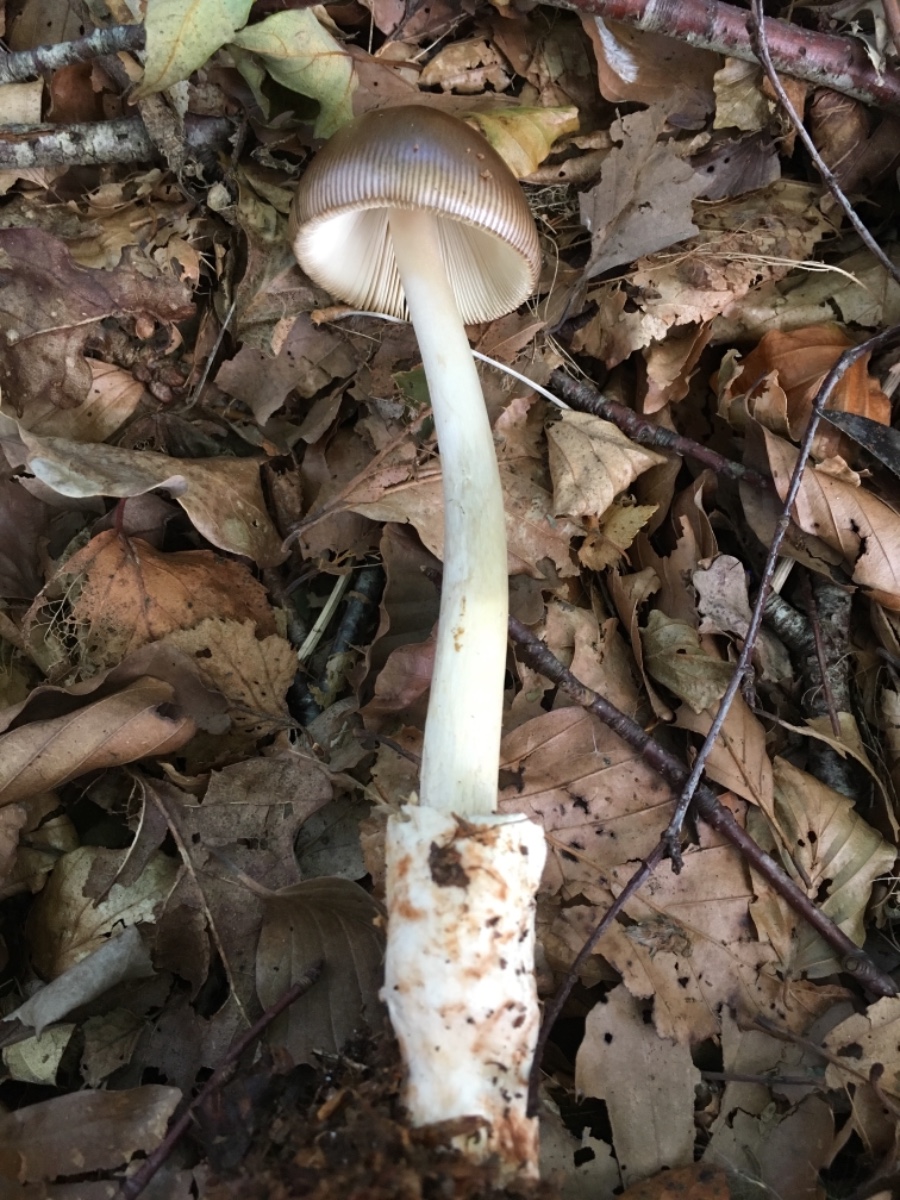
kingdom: Fungi
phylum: Basidiomycota
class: Agaricomycetes
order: Agaricales
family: Amanitaceae
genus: Amanita
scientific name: Amanita fulva
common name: brun kam-fluesvamp
